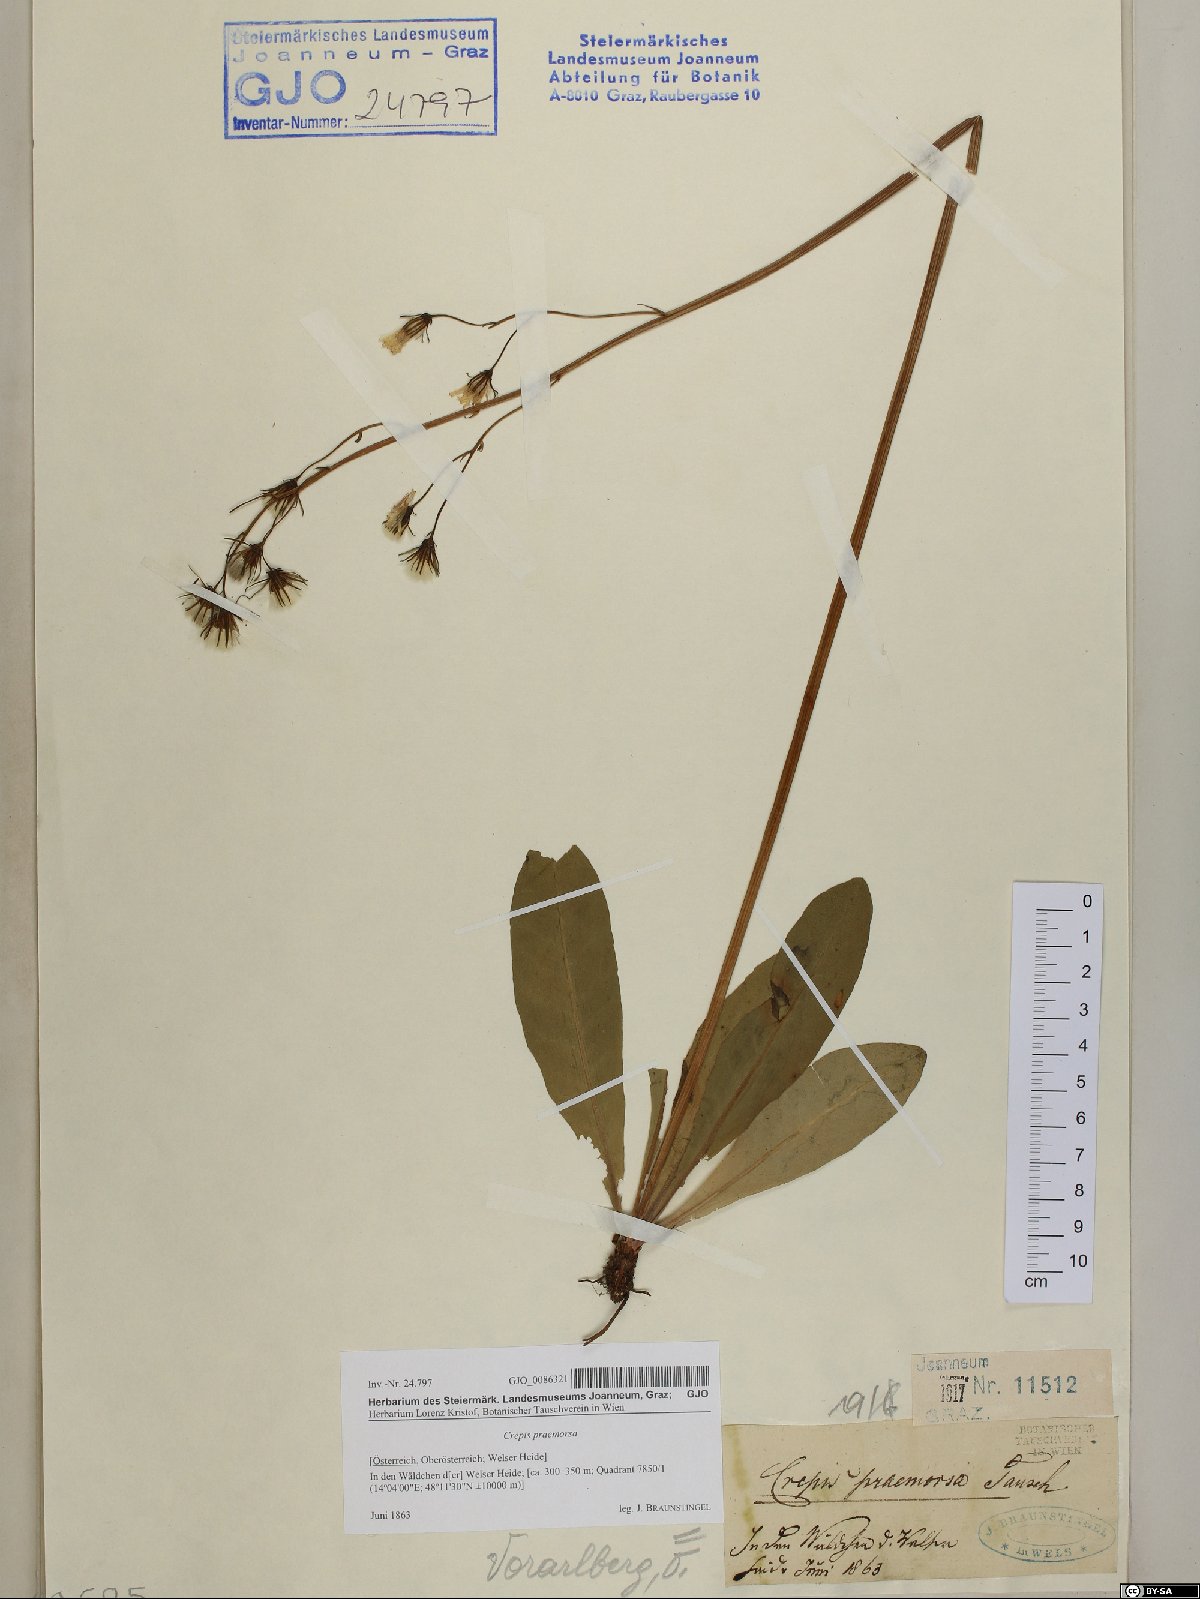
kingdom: Plantae
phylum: Tracheophyta
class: Magnoliopsida
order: Asterales
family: Asteraceae
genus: Crepis
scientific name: Crepis praemorsa
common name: Leafless hawk's-beard
